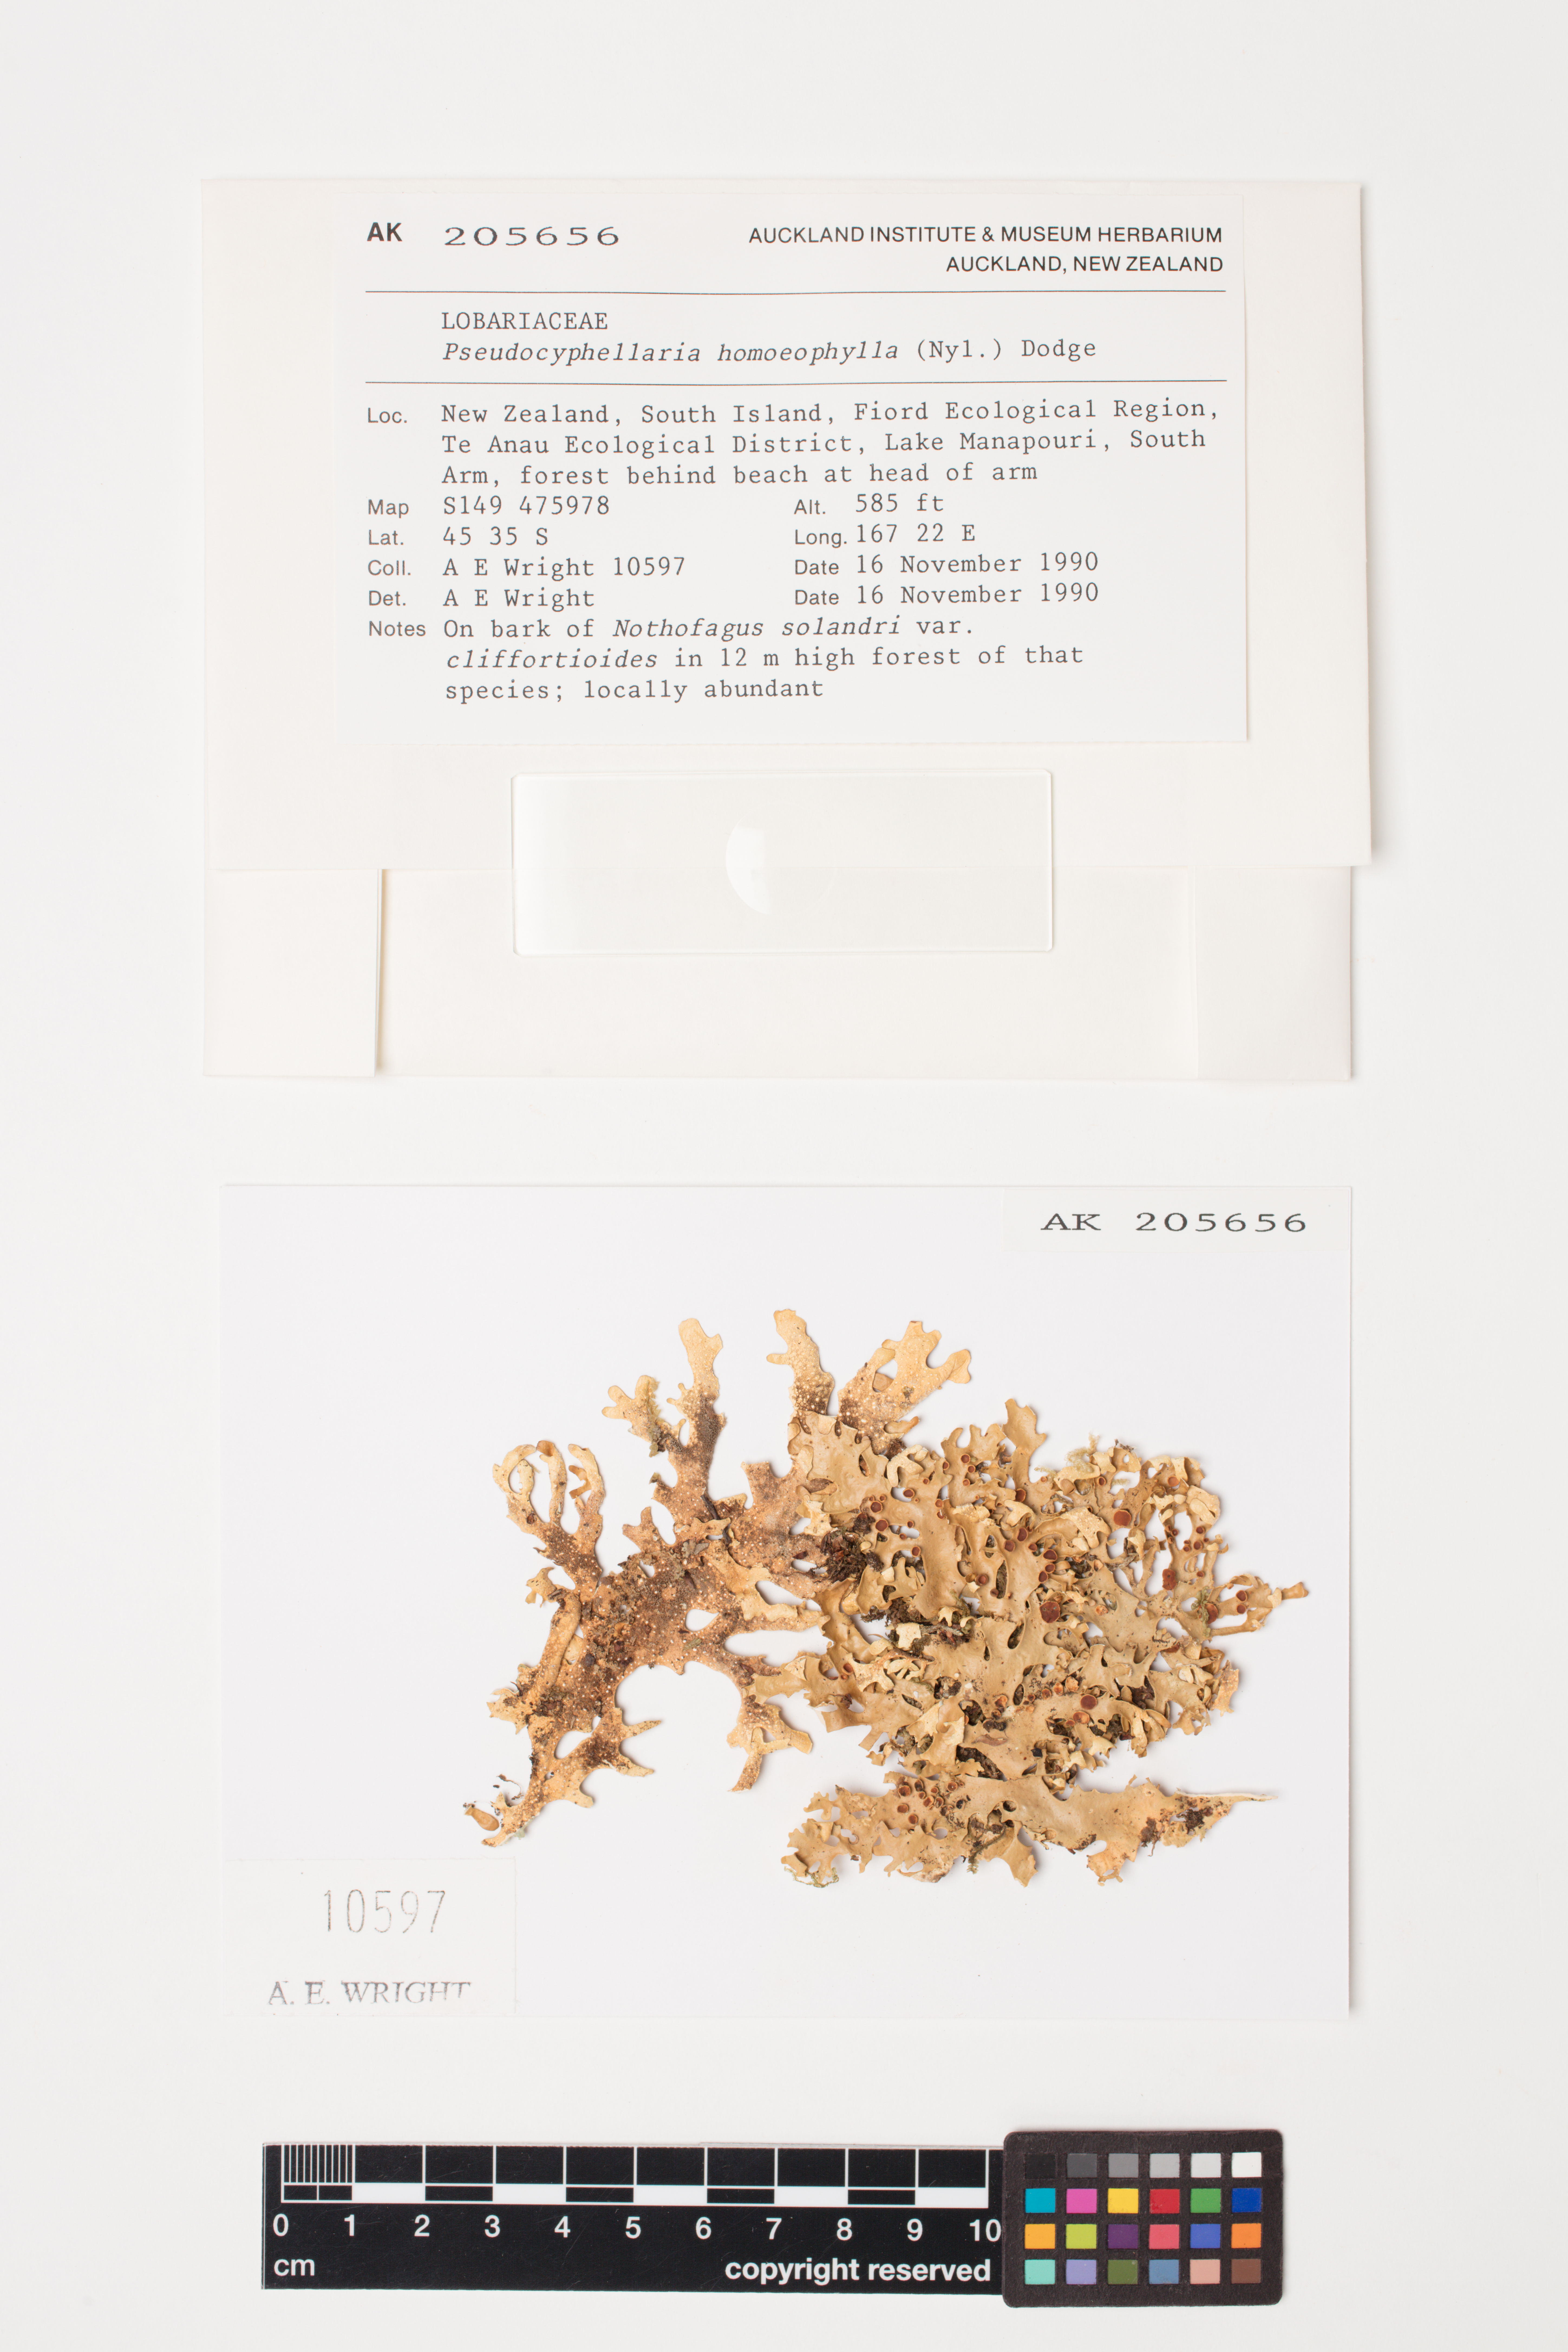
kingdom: Fungi
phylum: Ascomycota
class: Lecanoromycetes
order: Peltigerales
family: Lobariaceae
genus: Pseudocyphellaria
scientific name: Pseudocyphellaria homeophylla
